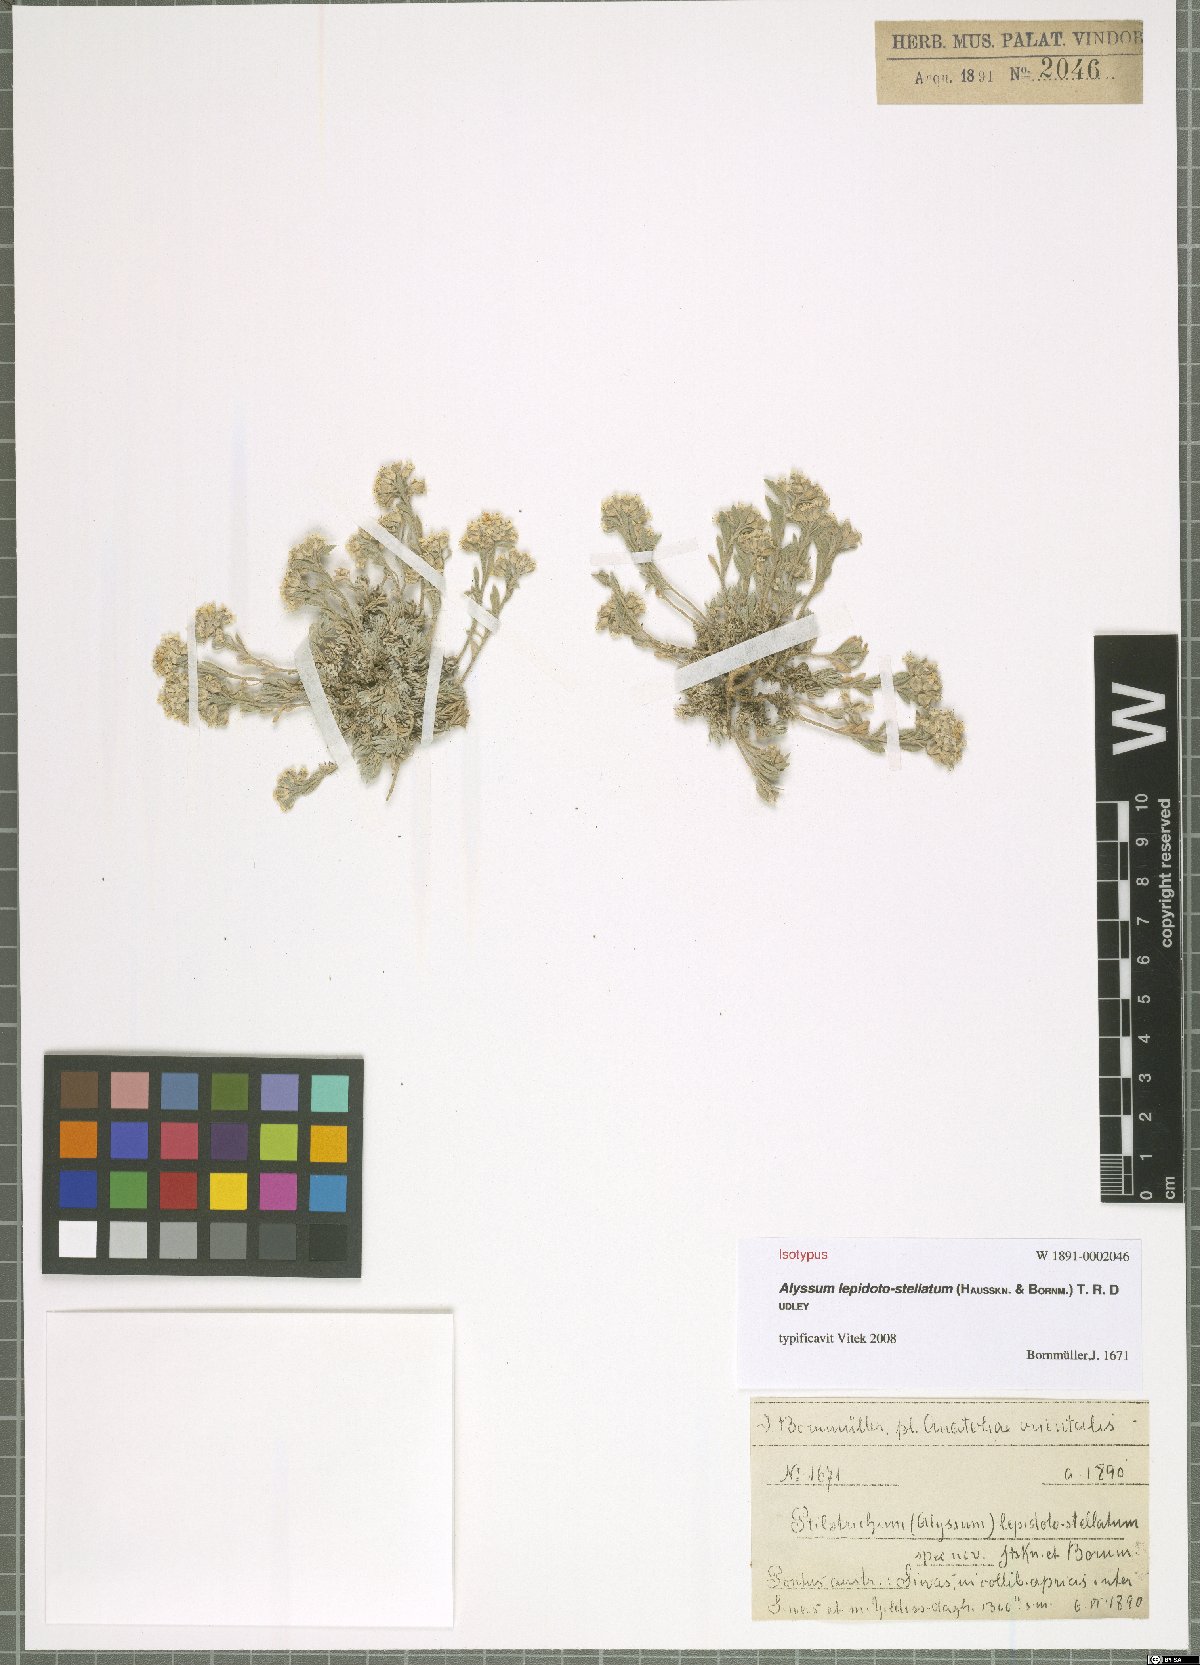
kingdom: Plantae
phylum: Tracheophyta
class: Magnoliopsida
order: Brassicales
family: Brassicaceae
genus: Alyssum
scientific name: Alyssum lepidoto-stellatum
